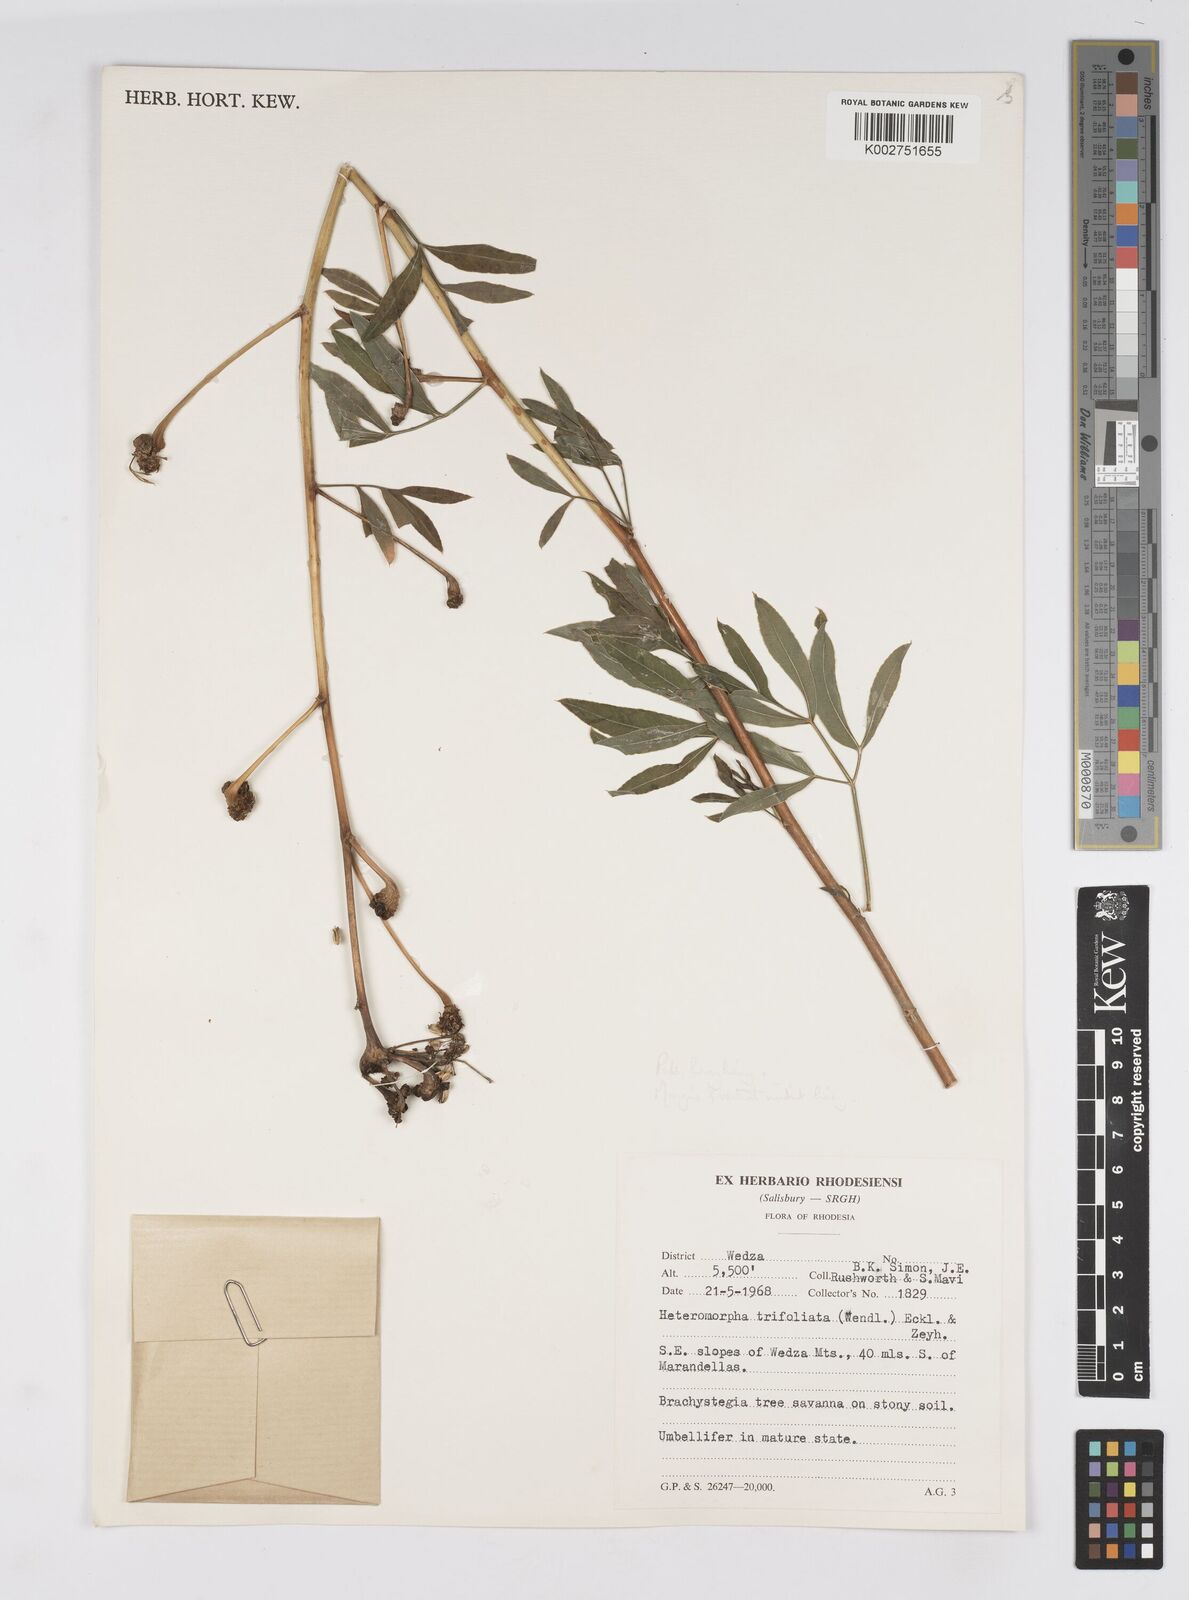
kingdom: Plantae
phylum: Tracheophyta
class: Magnoliopsida
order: Apiales
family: Apiaceae
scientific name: Apiaceae
